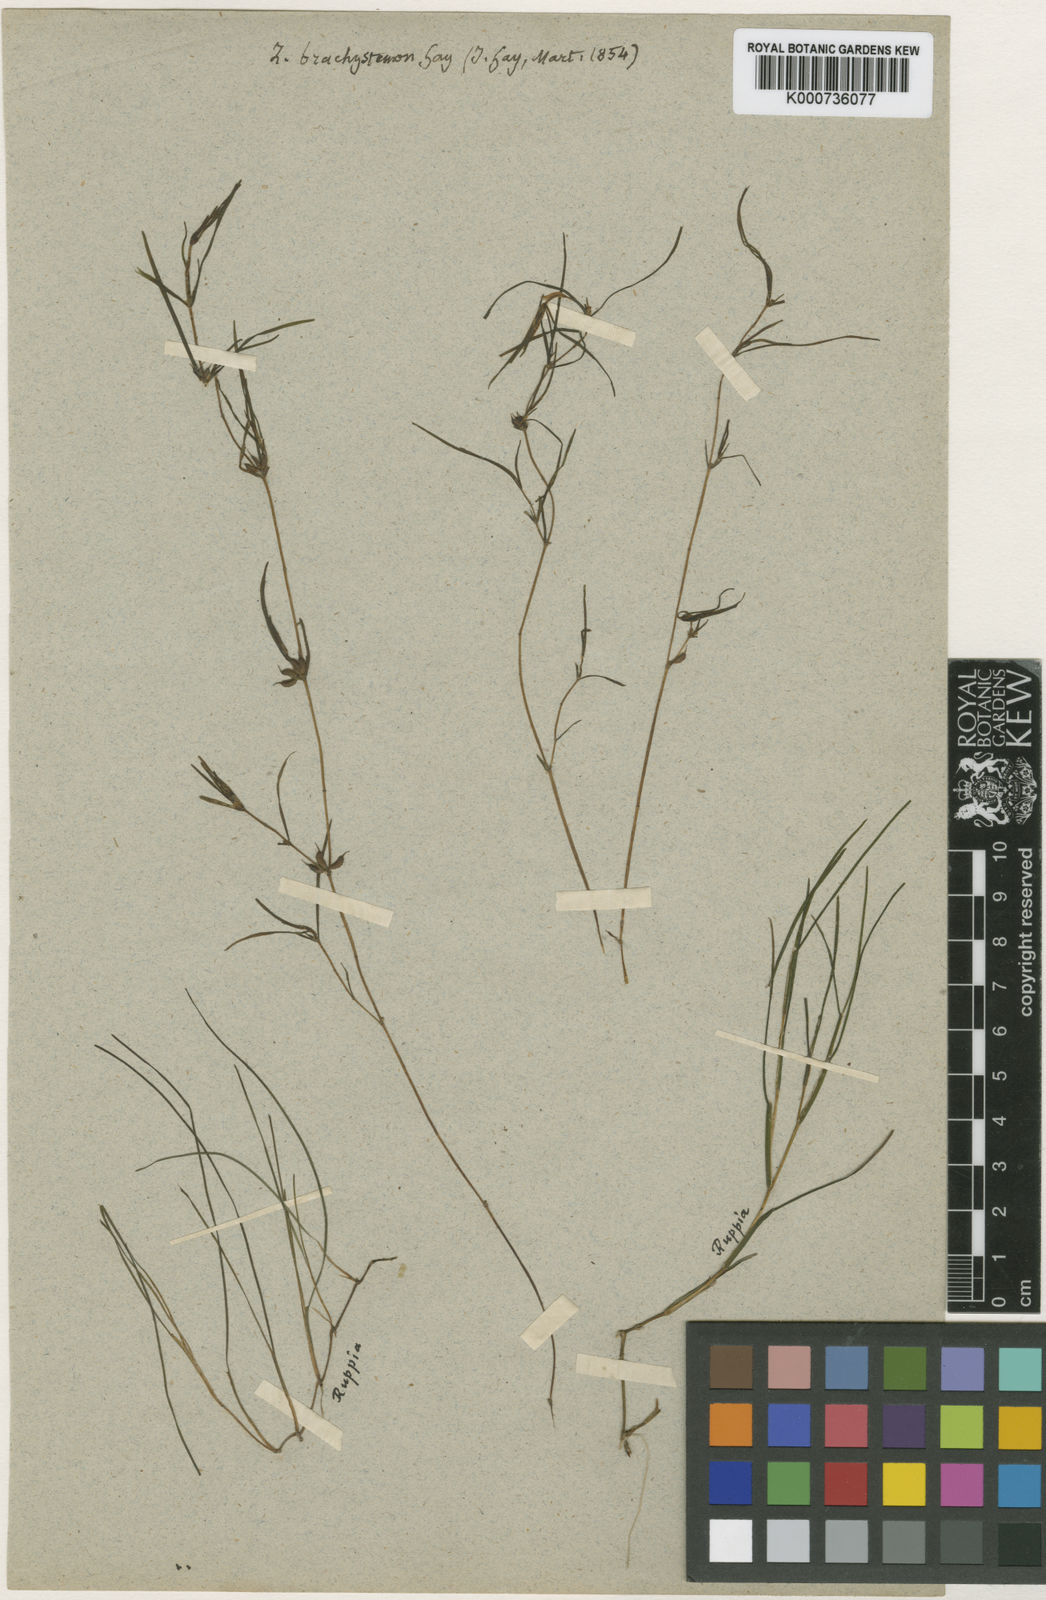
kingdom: Plantae
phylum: Tracheophyta
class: Liliopsida
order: Alismatales
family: Potamogetonaceae
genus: Zannichellia
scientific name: Zannichellia palustris
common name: Horned pondweed
